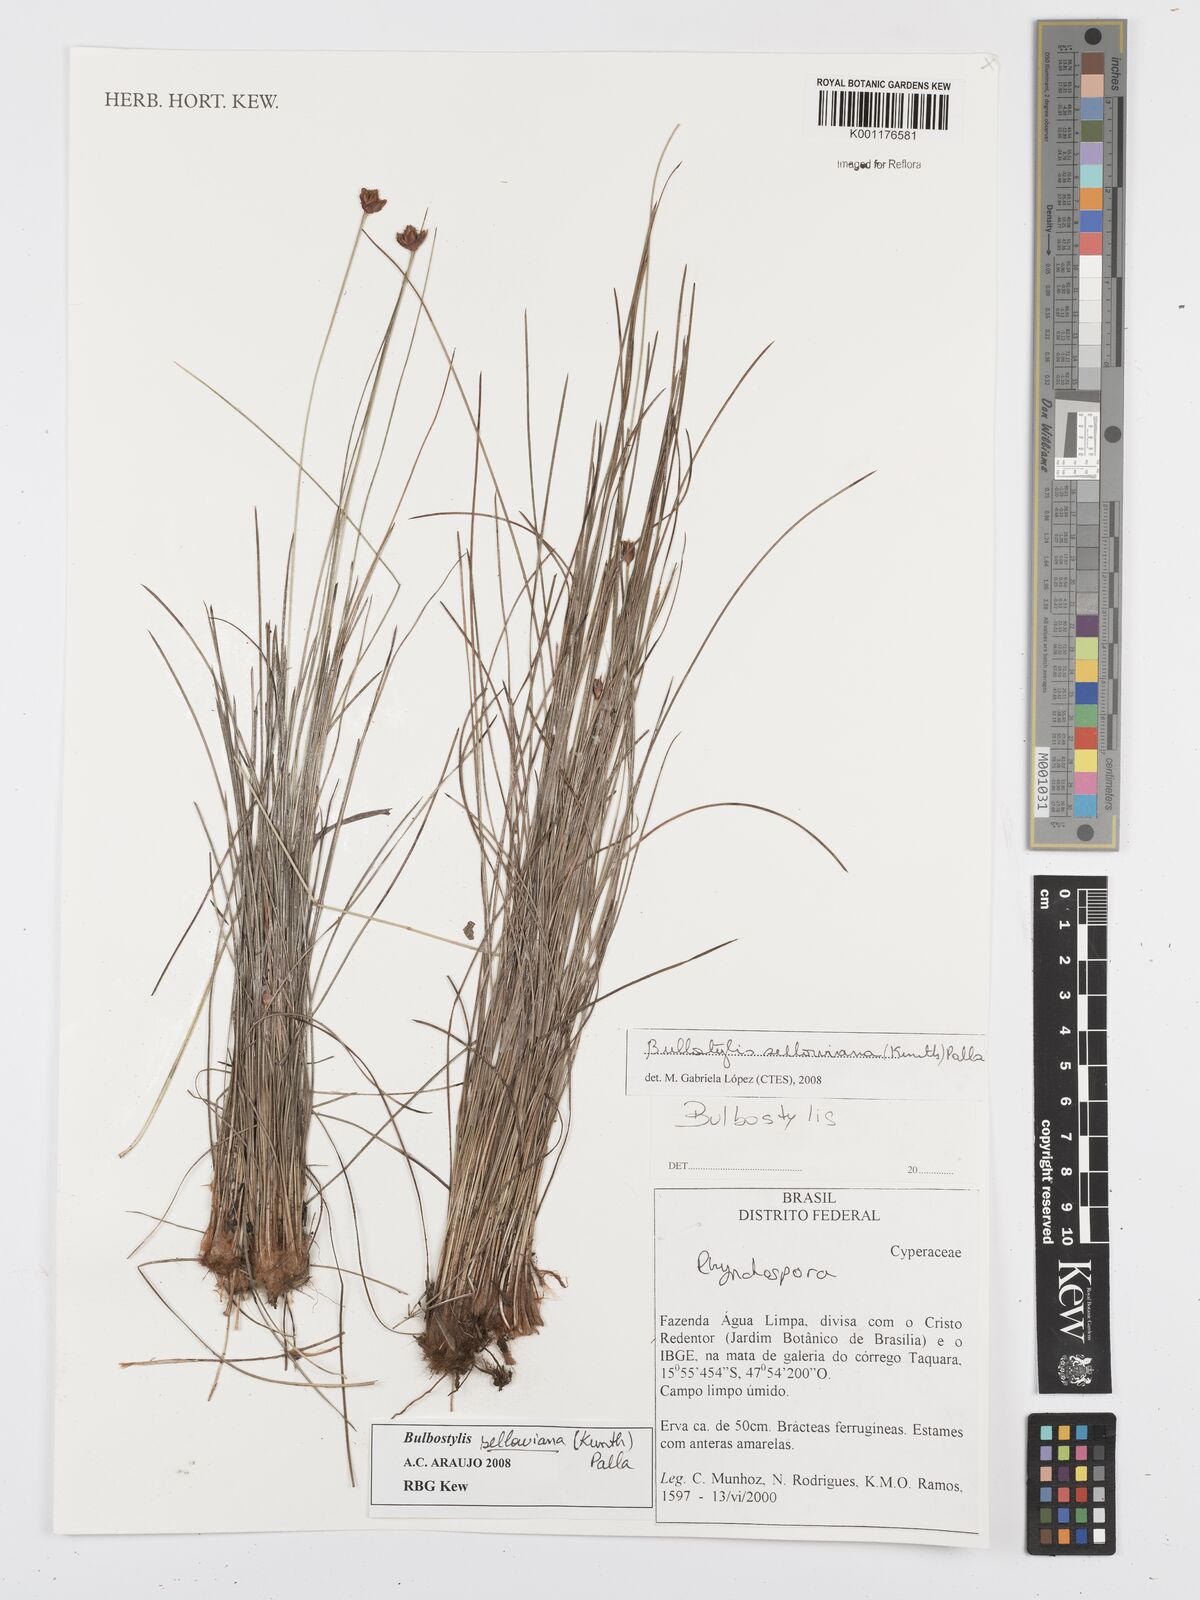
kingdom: Plantae
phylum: Tracheophyta
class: Liliopsida
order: Poales
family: Cyperaceae
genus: Bulbostylis
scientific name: Bulbostylis sellowiana
